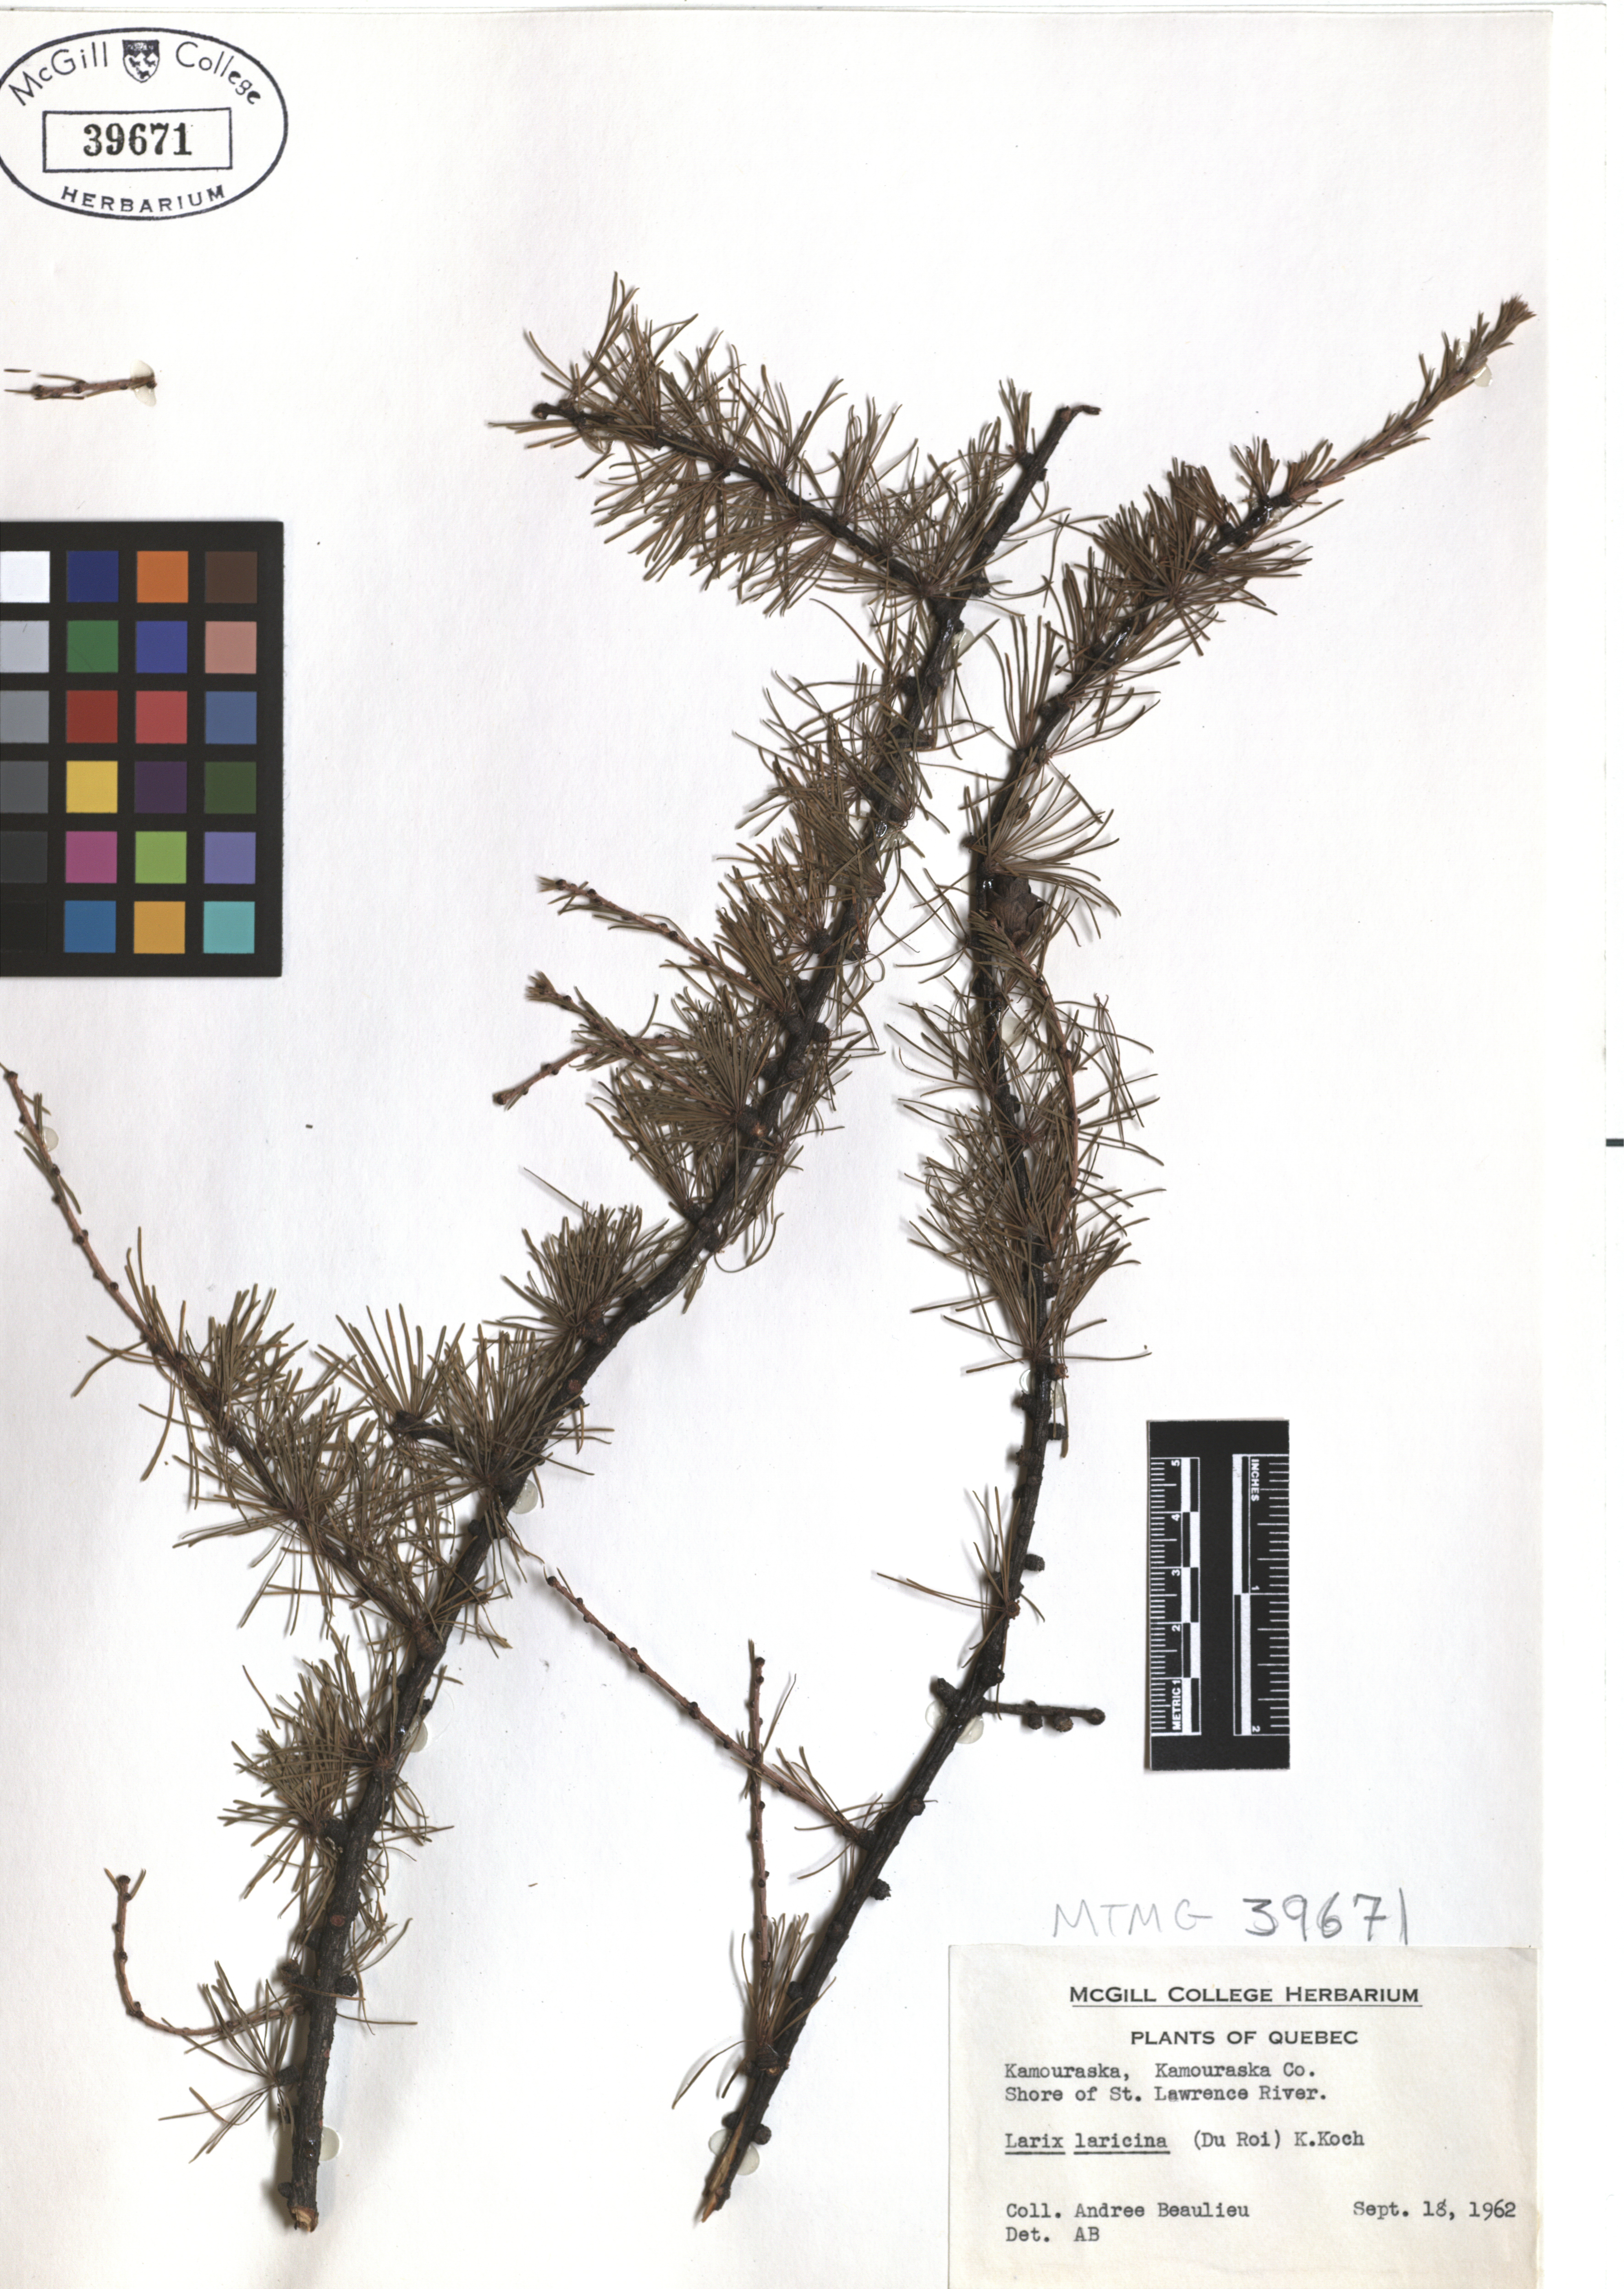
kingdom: Plantae
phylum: Tracheophyta
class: Pinopsida
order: Pinales
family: Pinaceae
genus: Larix
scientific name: Larix laricina
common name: American larch
